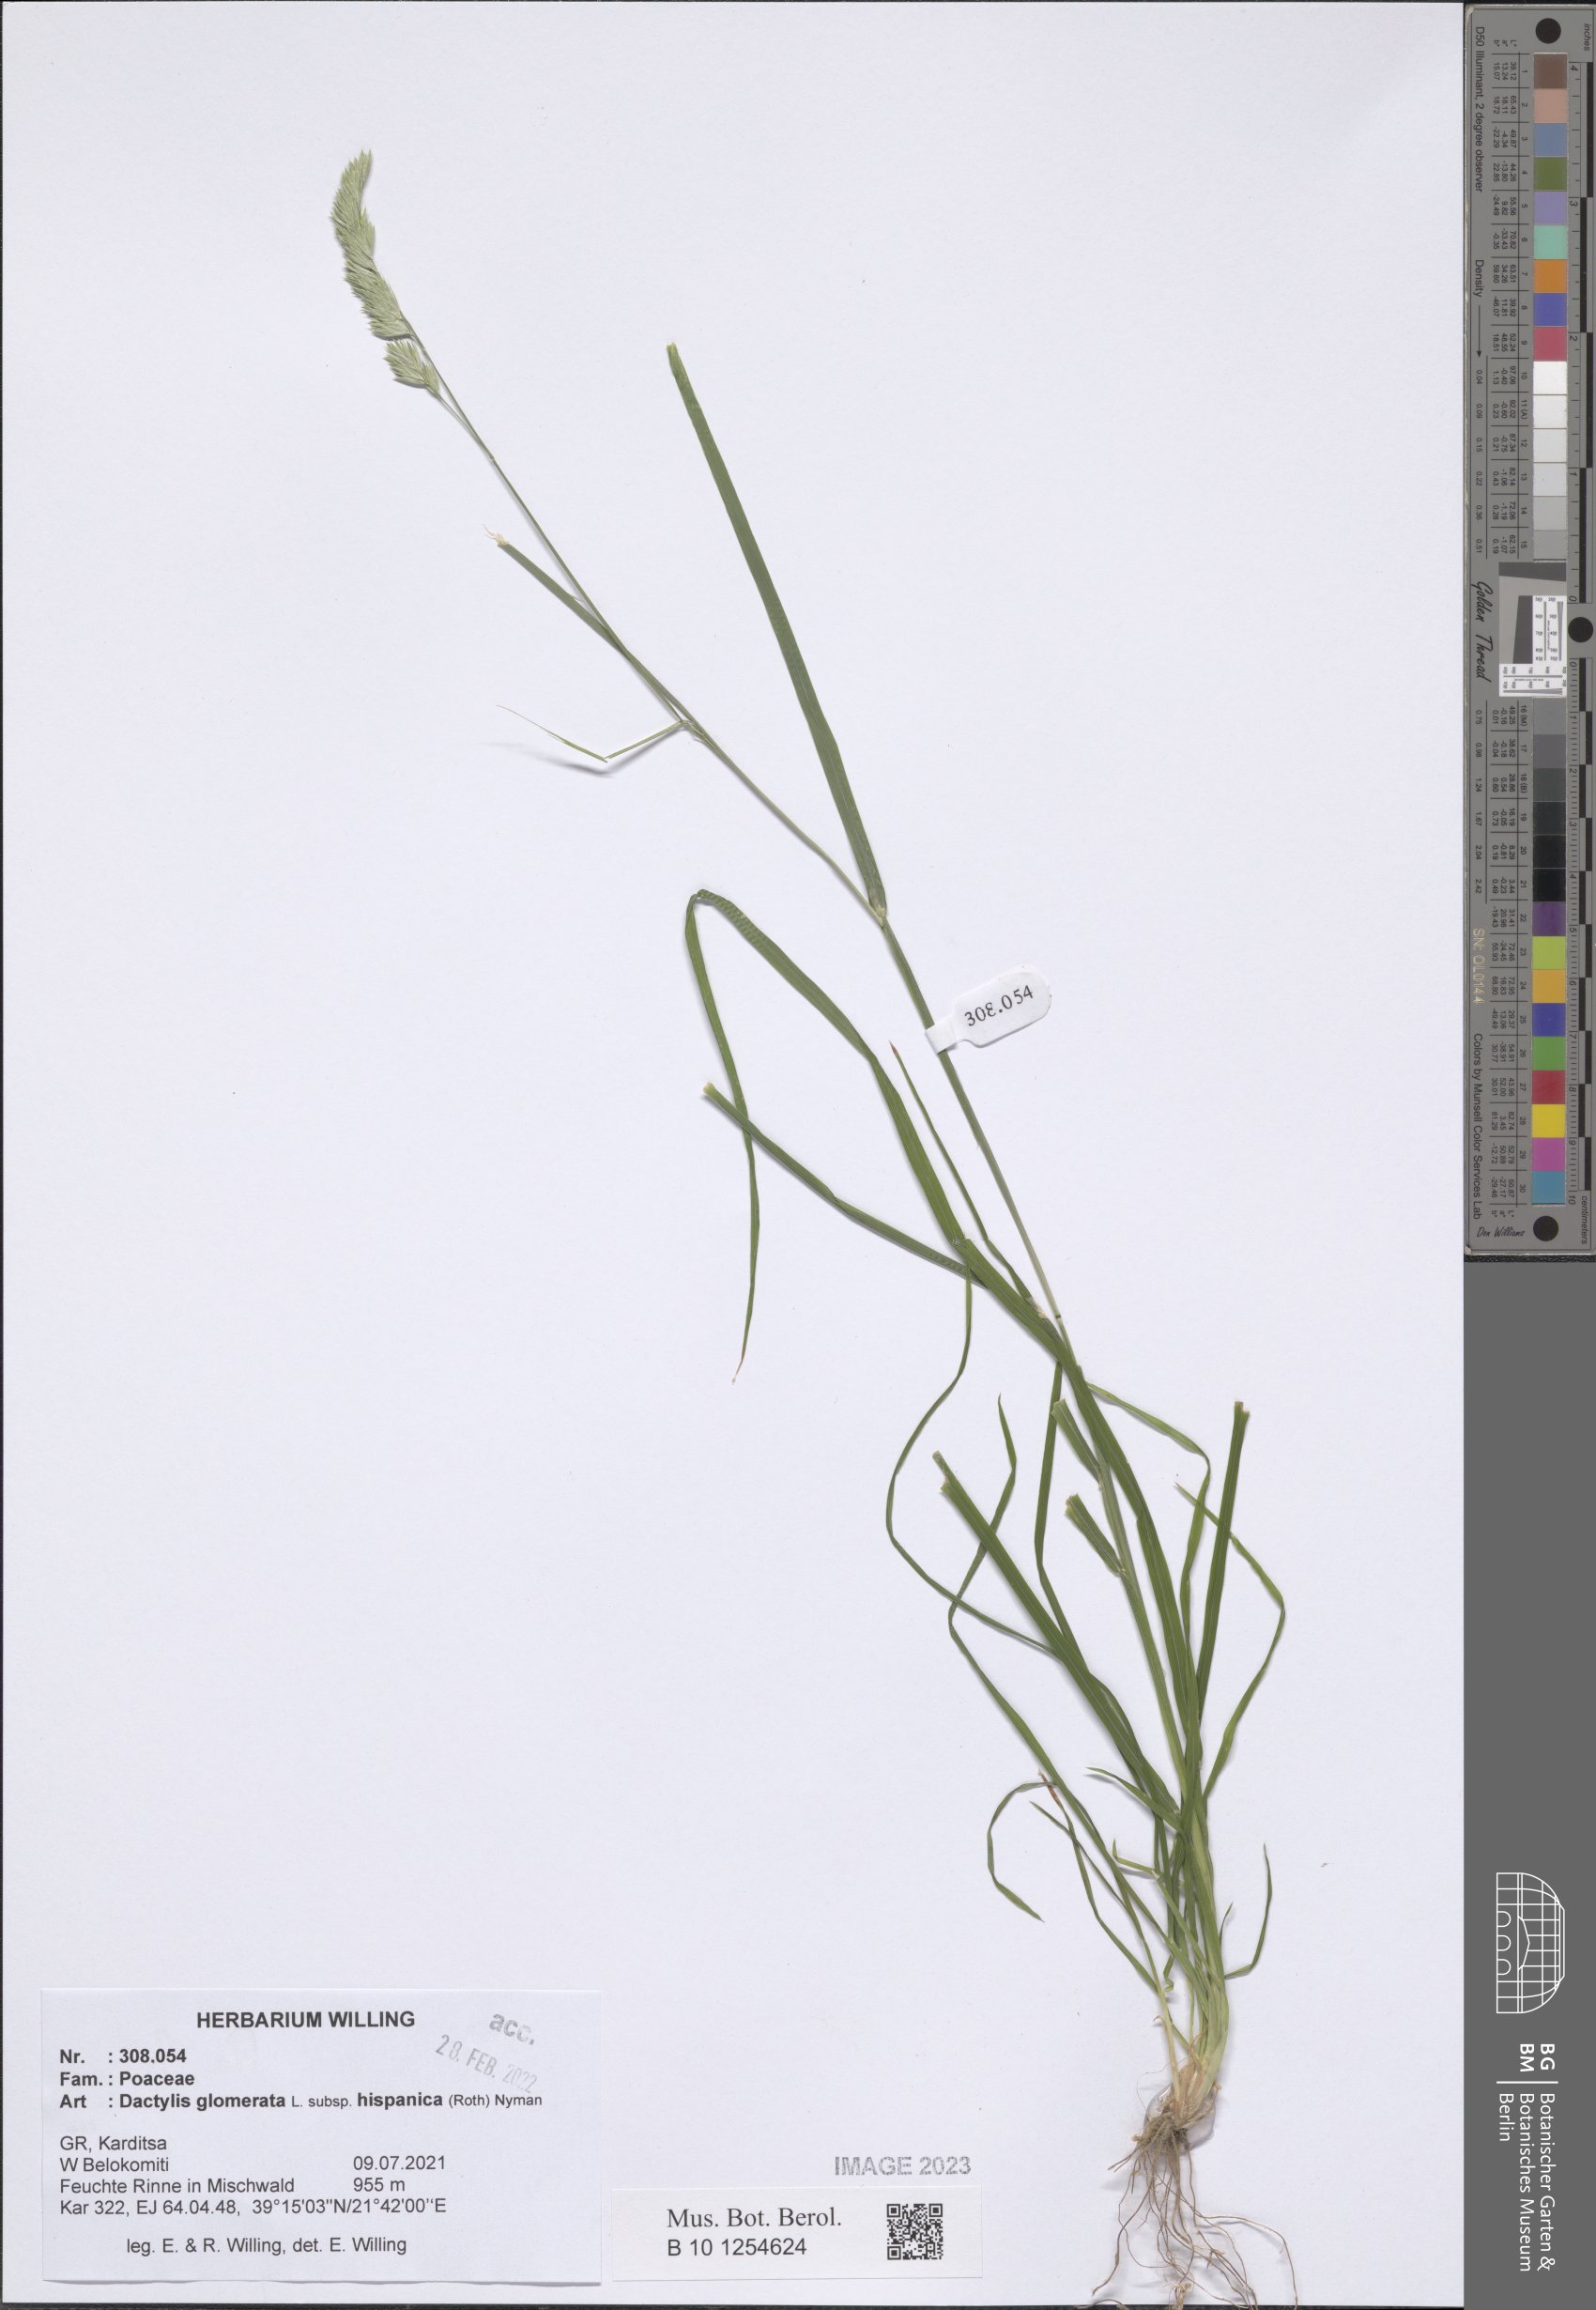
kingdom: Plantae
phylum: Tracheophyta
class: Liliopsida
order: Poales
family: Poaceae
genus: Dactylis
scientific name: Dactylis glomerata
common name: Orchardgrass
